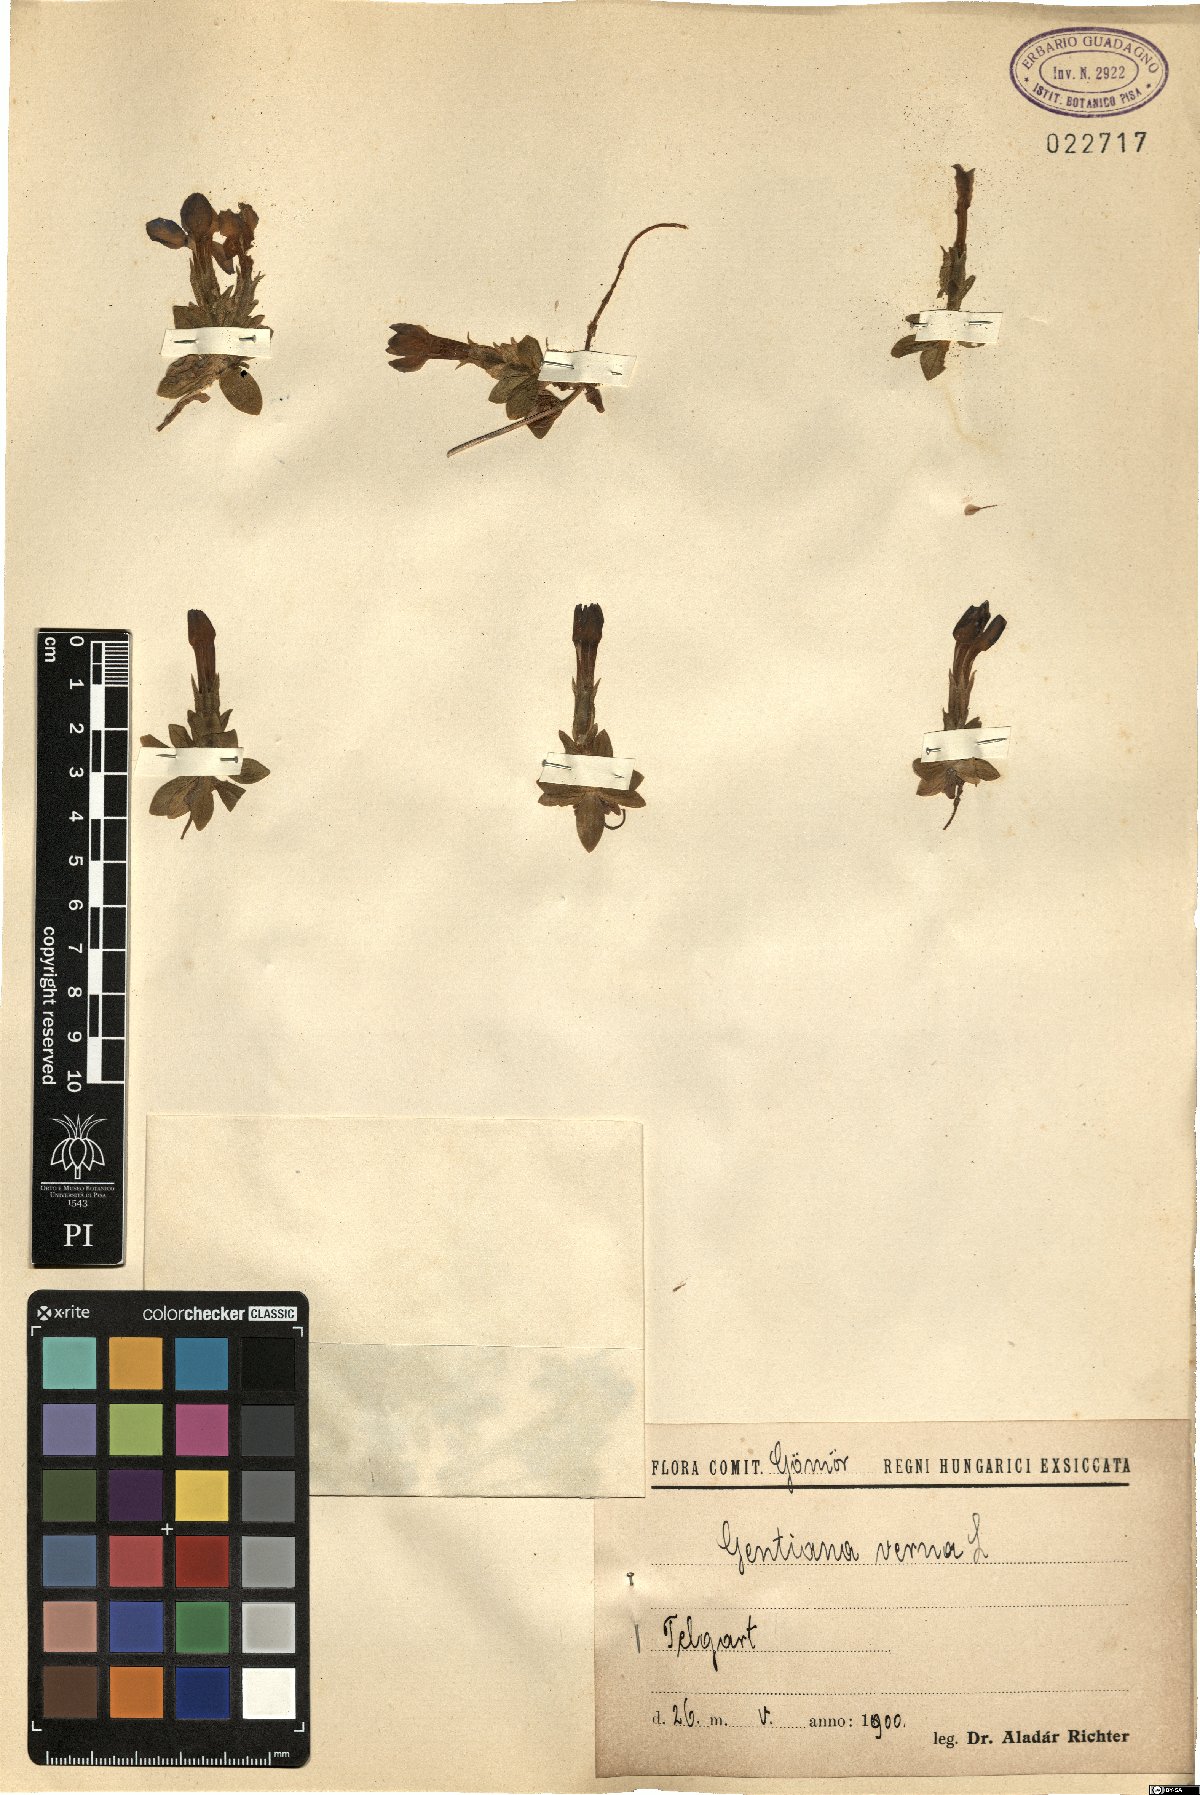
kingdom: Plantae
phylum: Tracheophyta
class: Magnoliopsida
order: Gentianales
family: Gentianaceae
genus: Gentiana
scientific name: Gentiana verna
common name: Spring gentian
